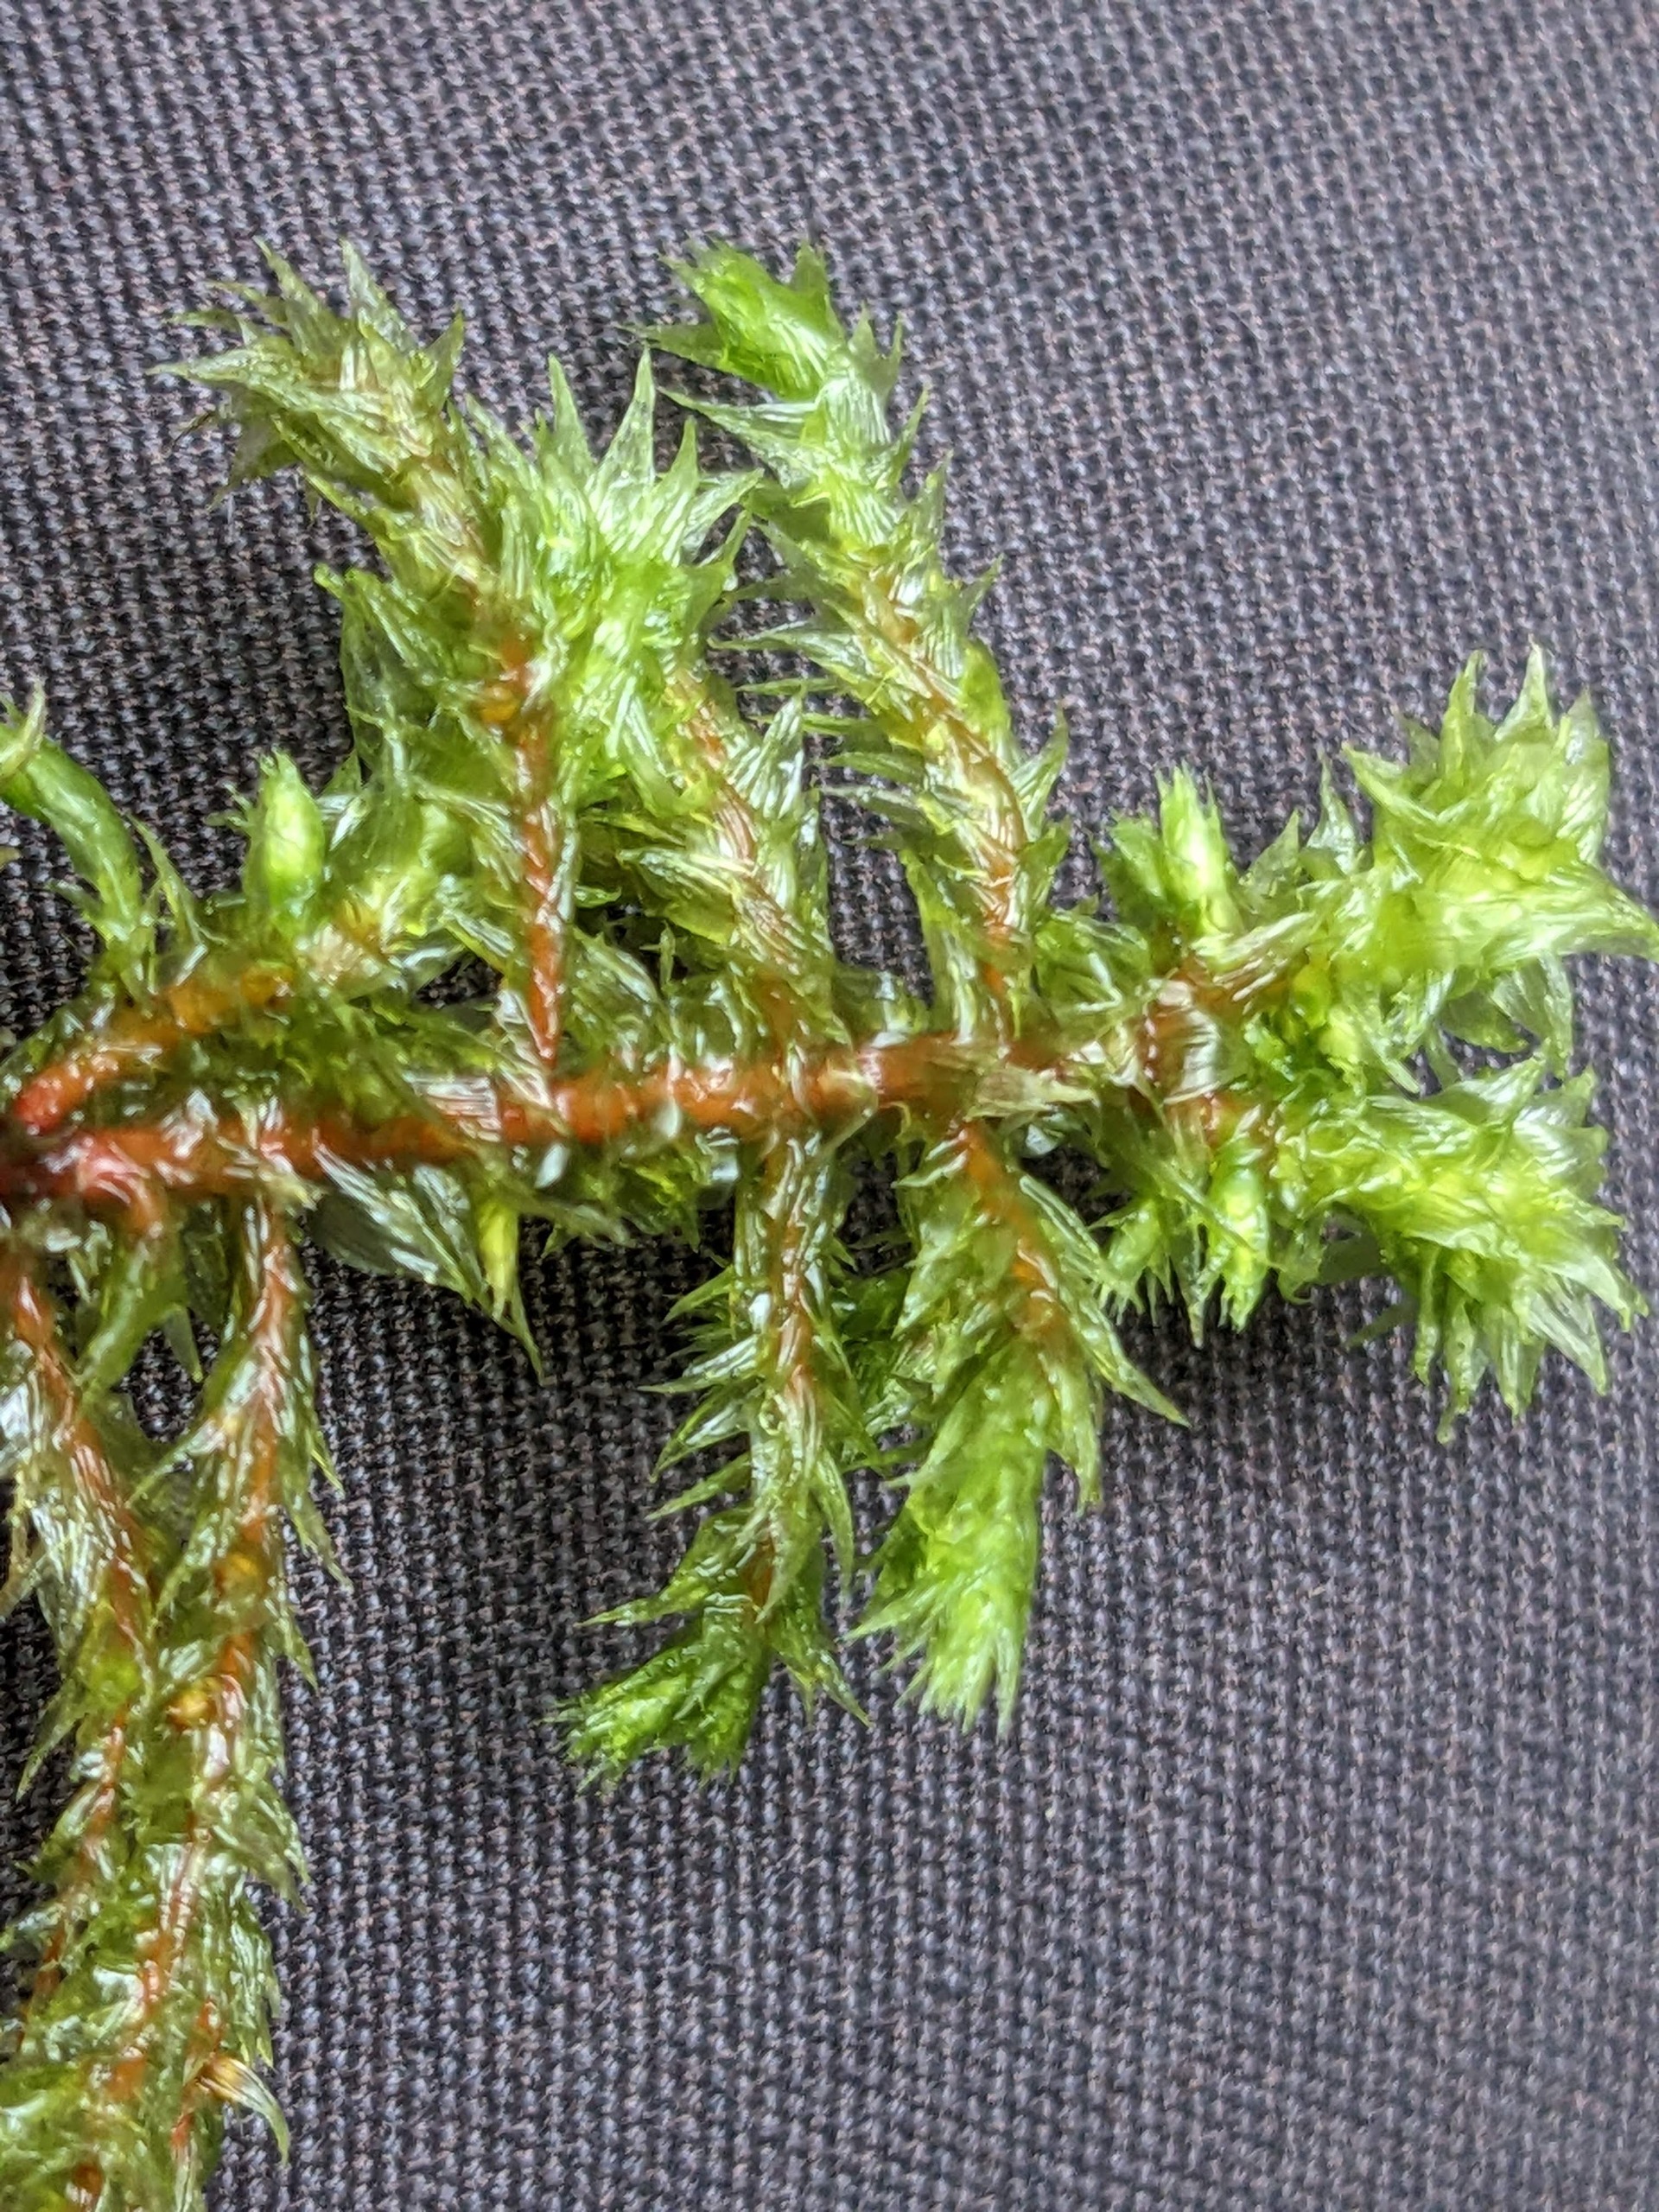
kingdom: Plantae
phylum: Bryophyta
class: Bryopsida
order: Hypnales
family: Hylocomiaceae
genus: Hylocomiadelphus
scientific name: Hylocomiadelphus triquetrus
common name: Stor kransemos
